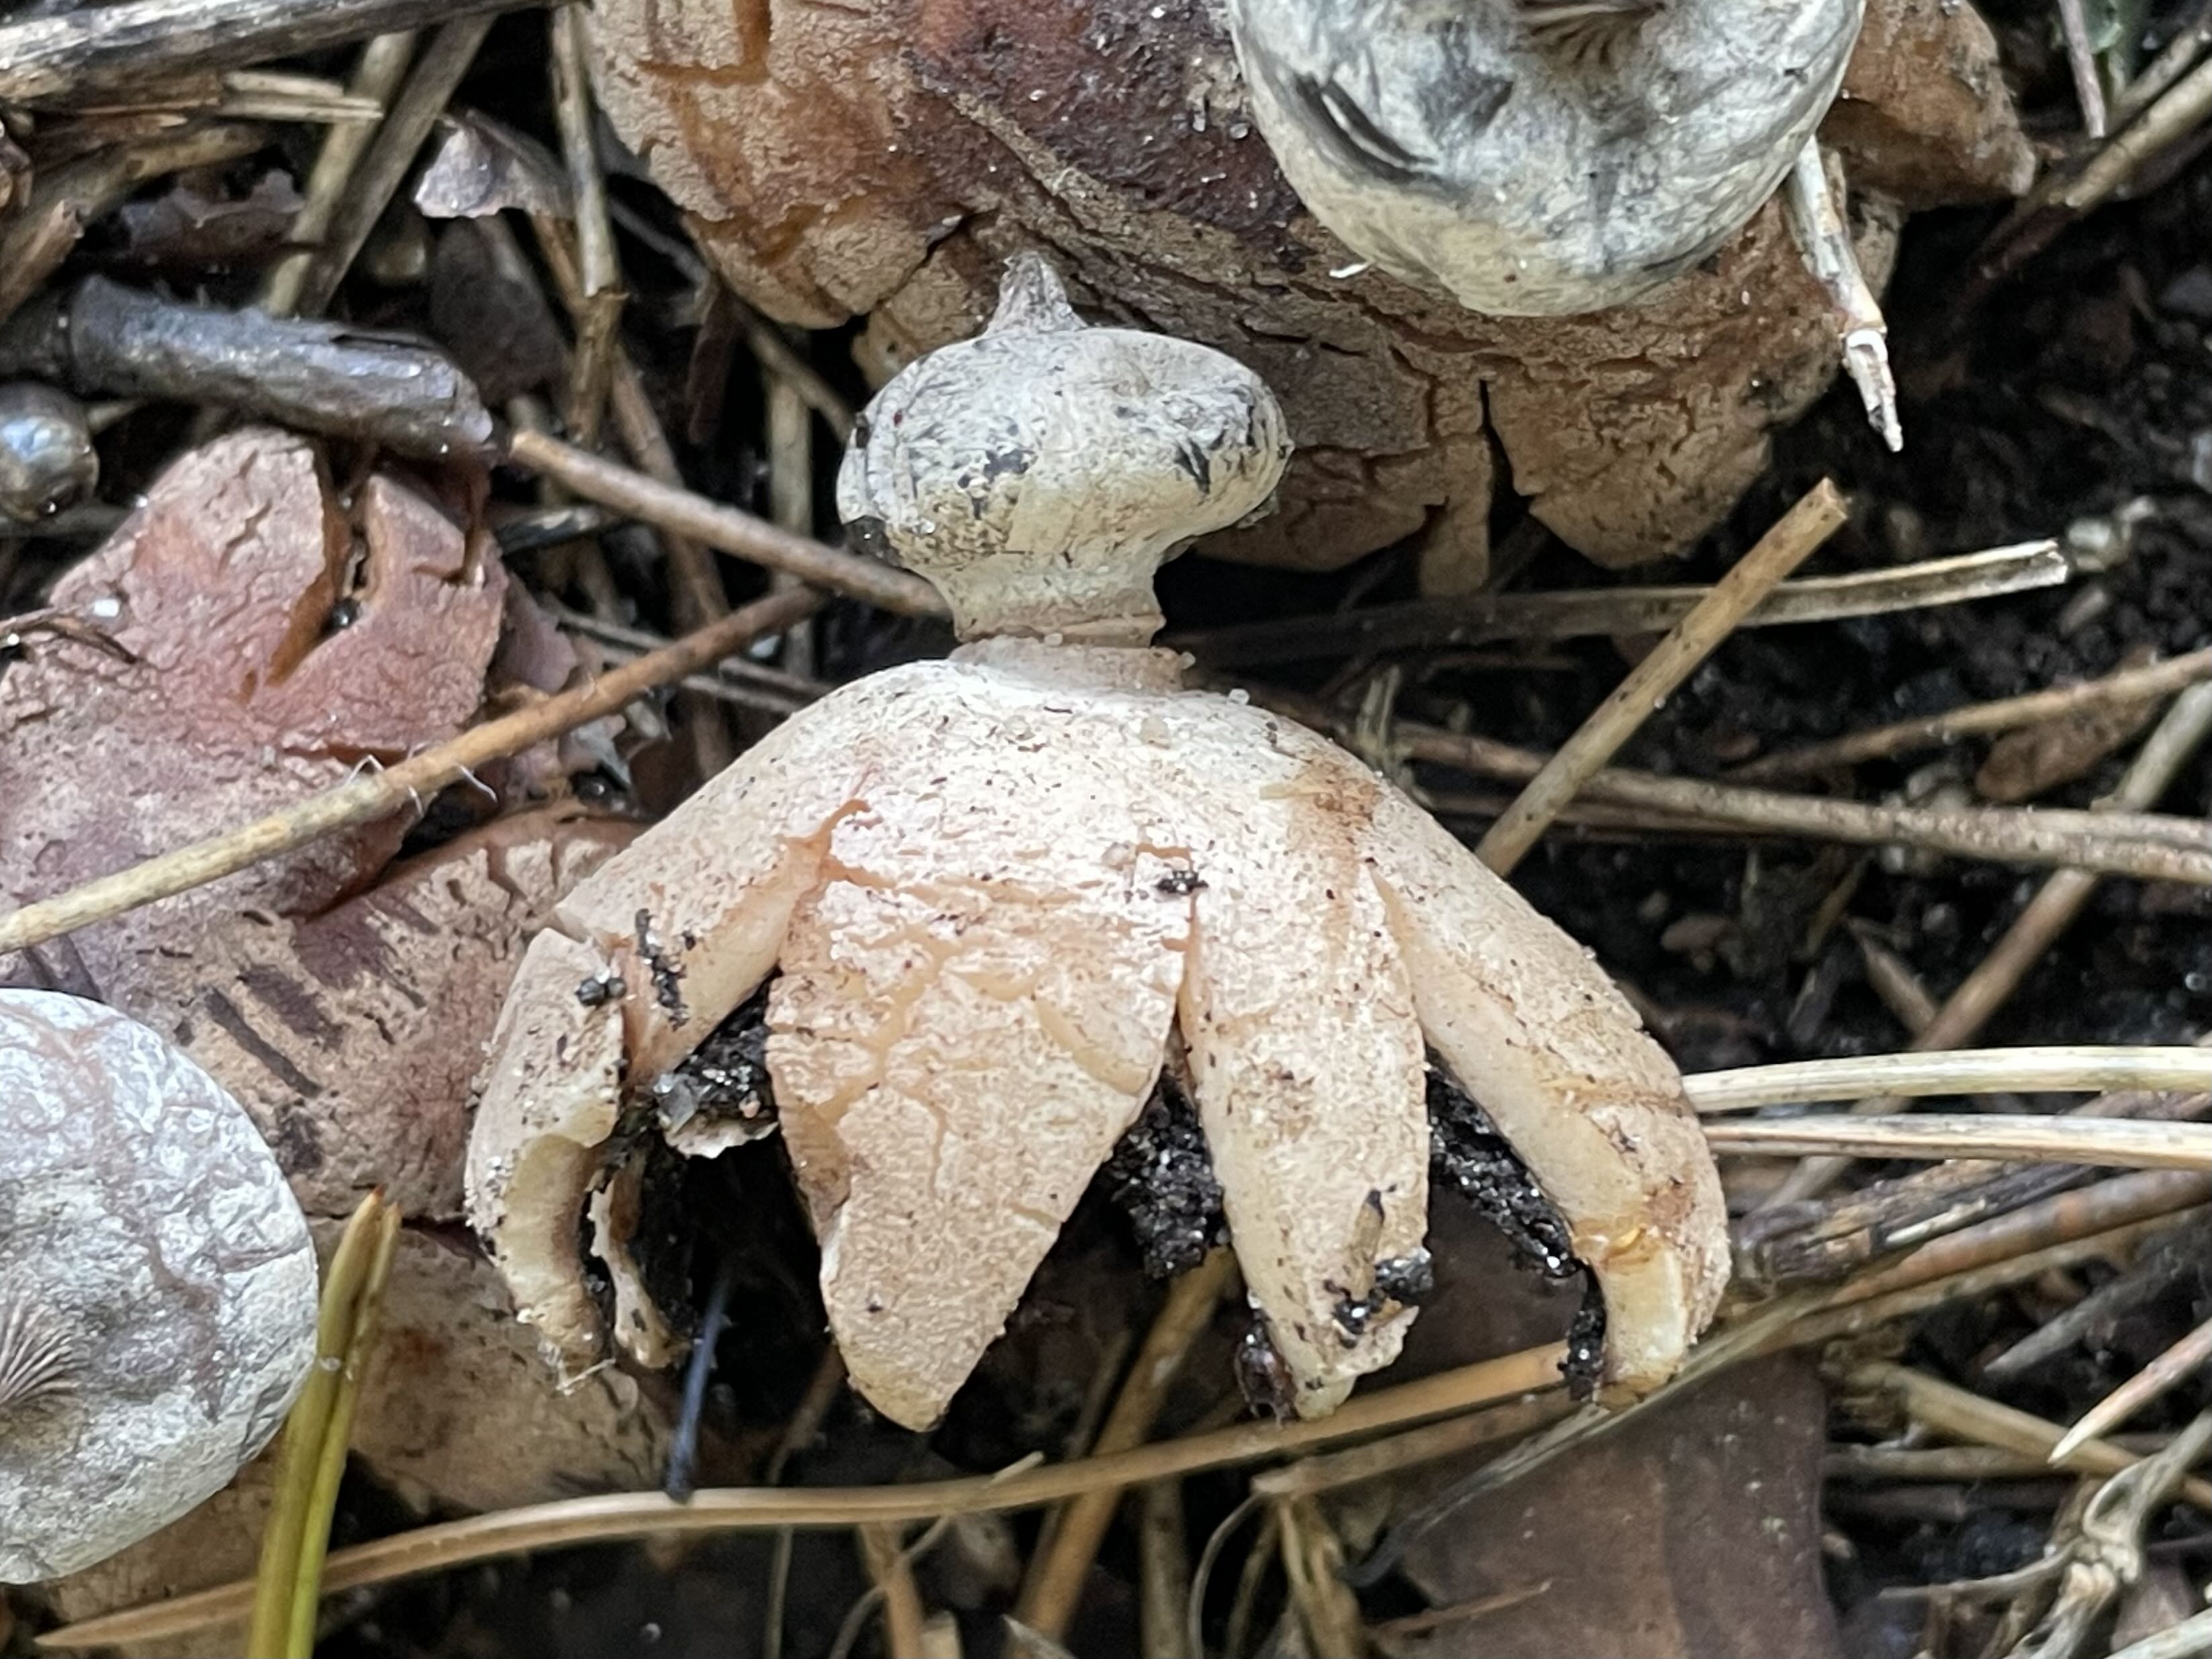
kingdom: Fungi
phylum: Basidiomycota
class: Agaricomycetes
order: Geastrales
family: Geastraceae
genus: Geastrum
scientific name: Geastrum striatum
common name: krave-stjernebold
